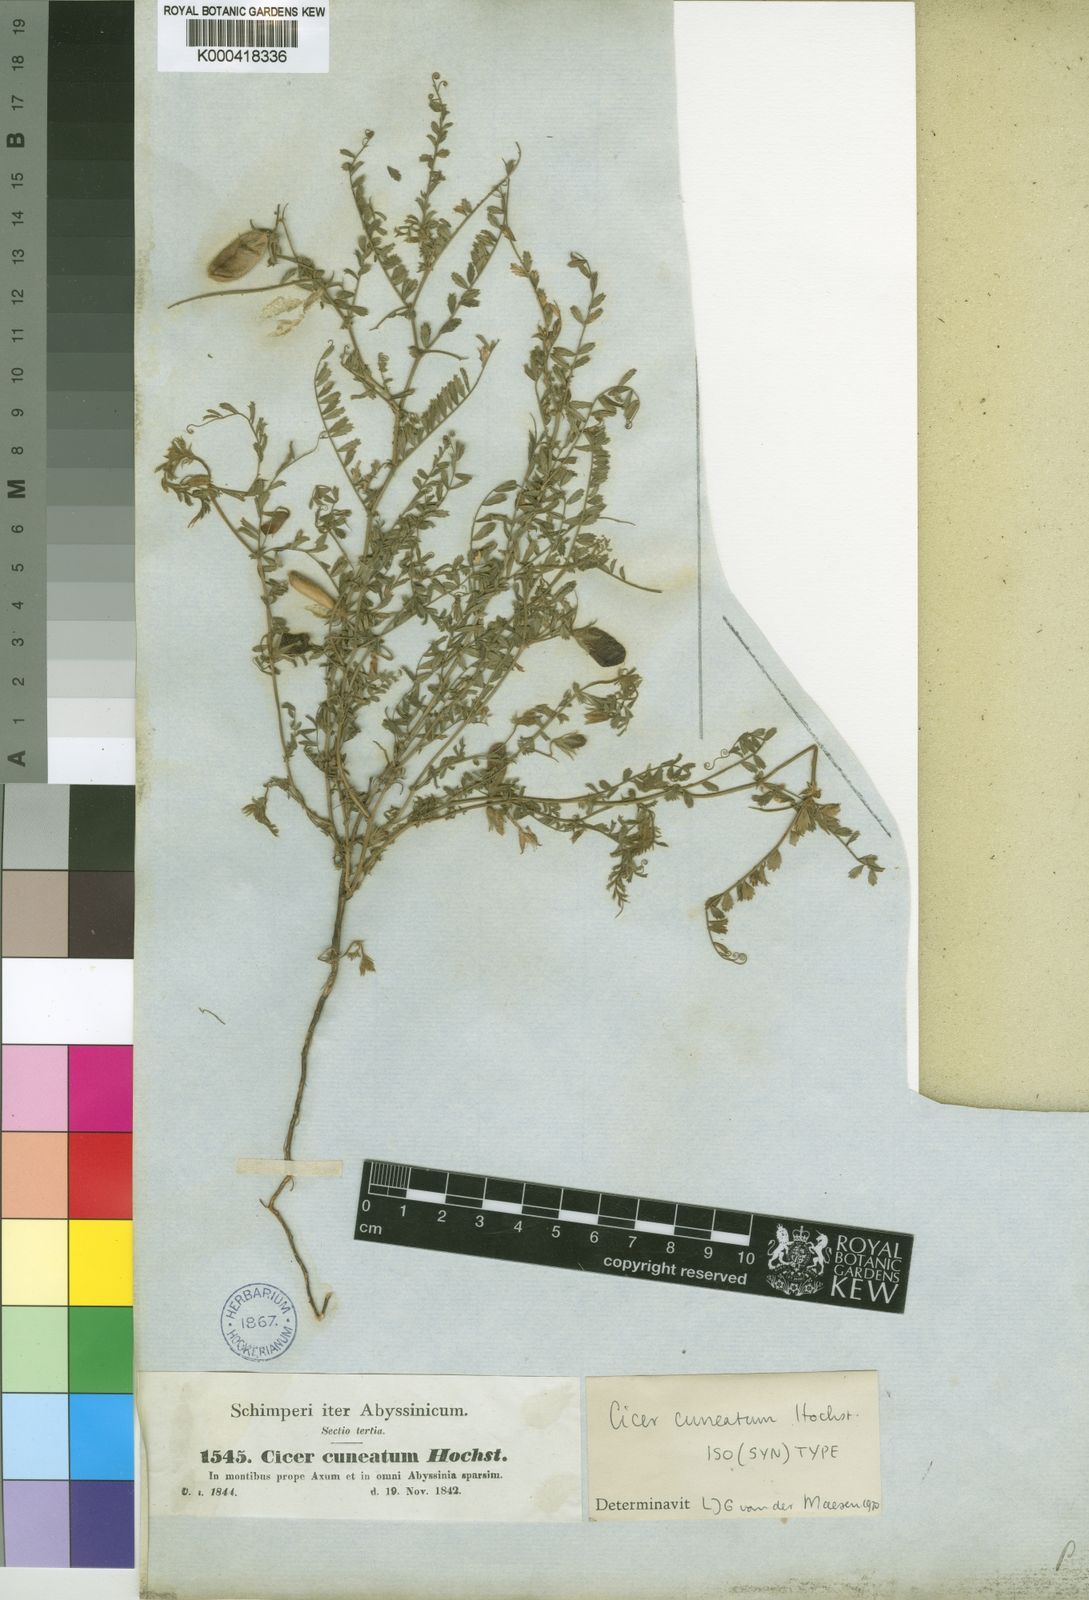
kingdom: Plantae
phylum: Tracheophyta
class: Magnoliopsida
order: Fabales
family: Fabaceae
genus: Cicer
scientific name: Cicer cuneatum
